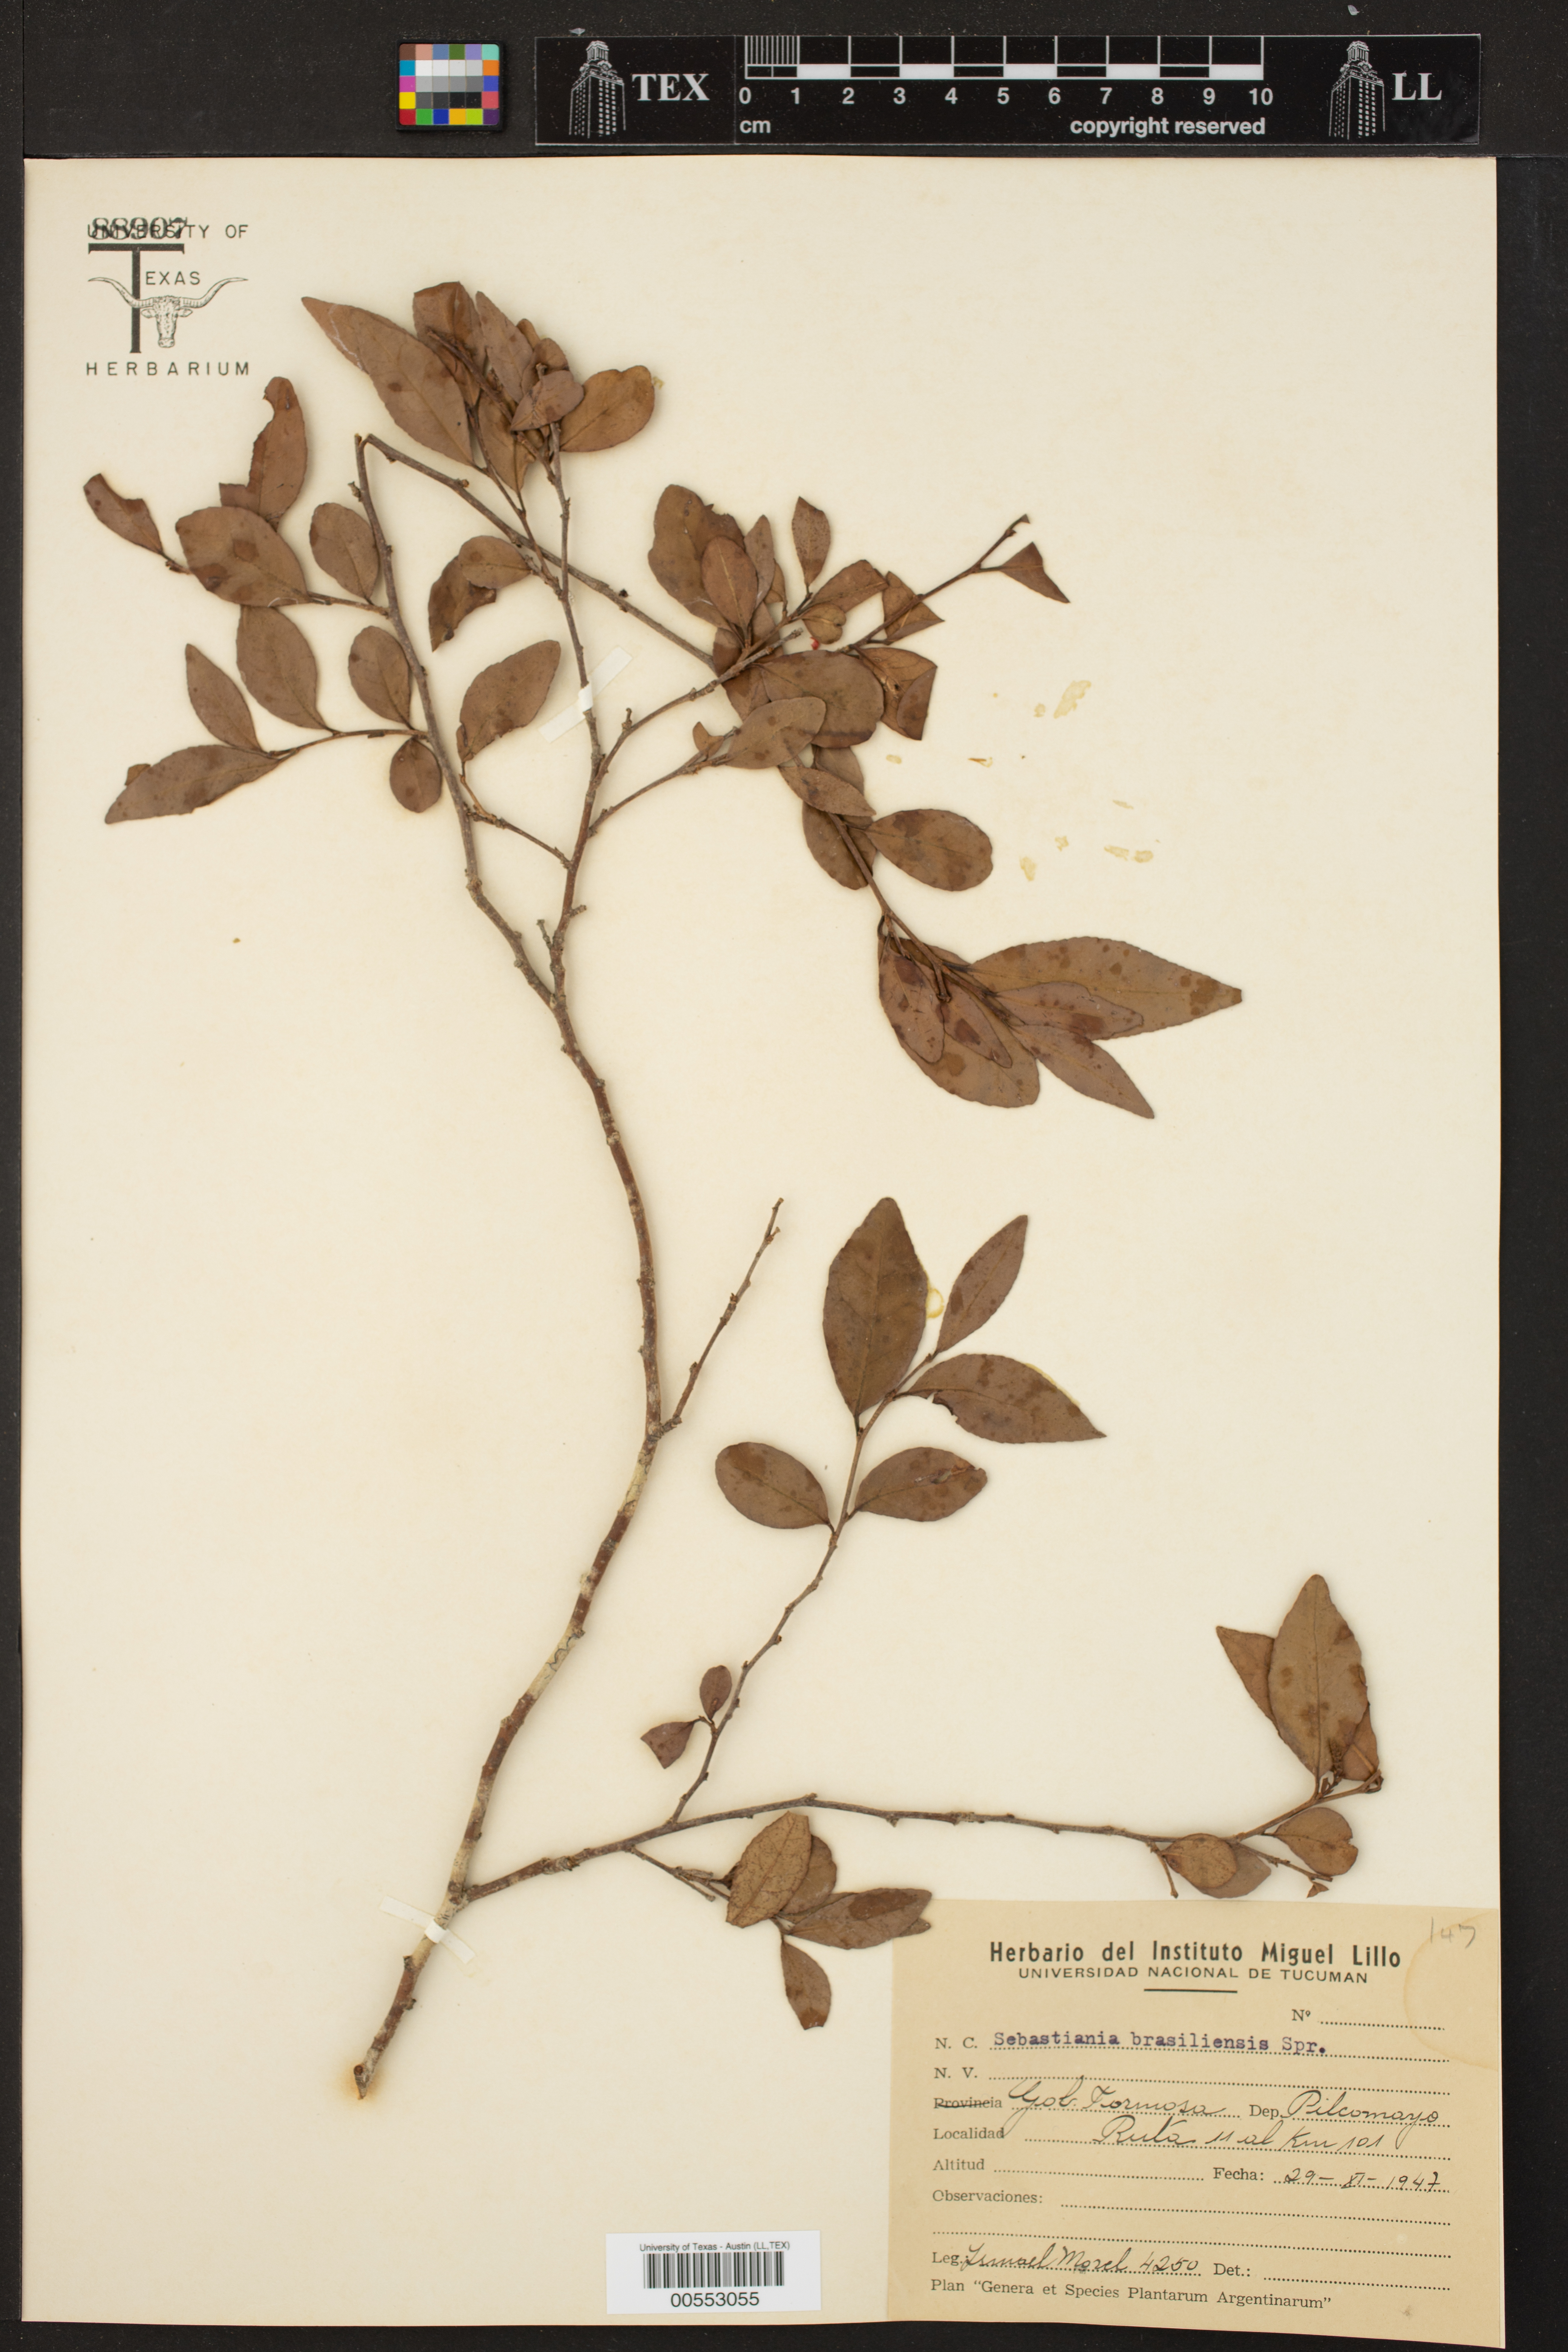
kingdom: Plantae
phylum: Tracheophyta
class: Magnoliopsida
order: Malpighiales
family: Euphorbiaceae
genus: Sebastiania
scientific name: Sebastiania brasiliensis
